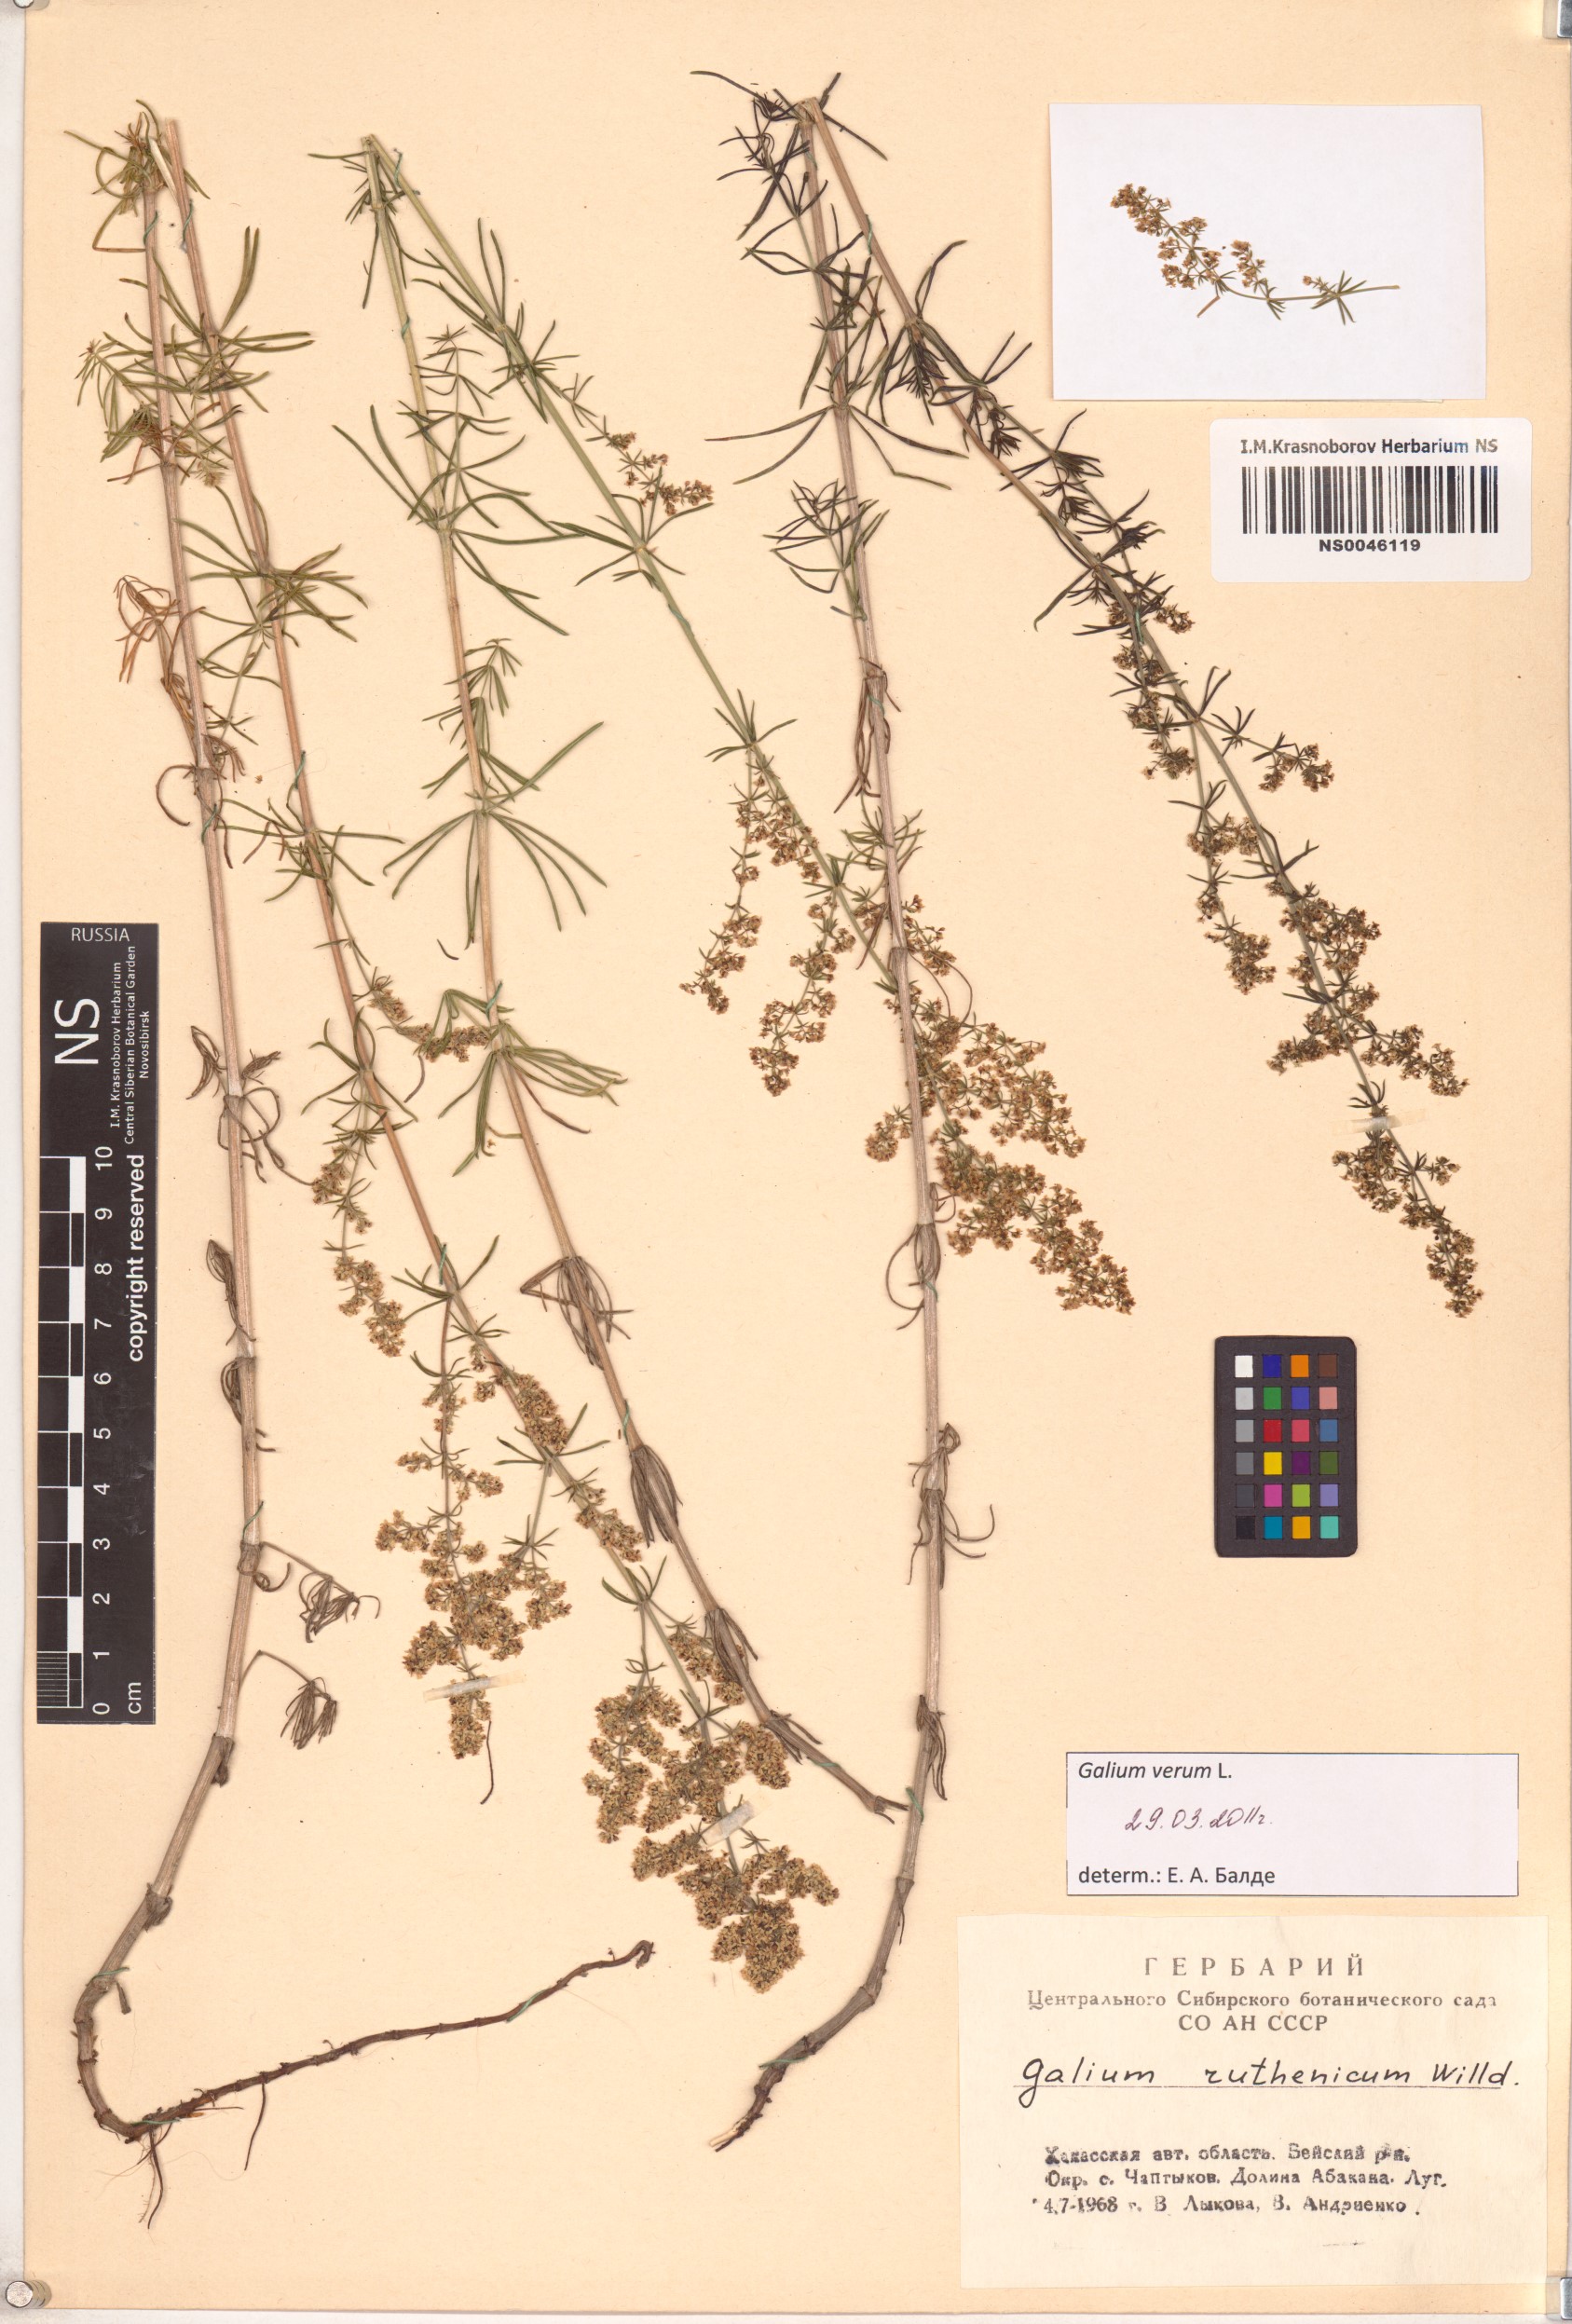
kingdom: Plantae
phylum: Tracheophyta
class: Magnoliopsida
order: Gentianales
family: Rubiaceae
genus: Galium
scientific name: Galium verum
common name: Lady's bedstraw
